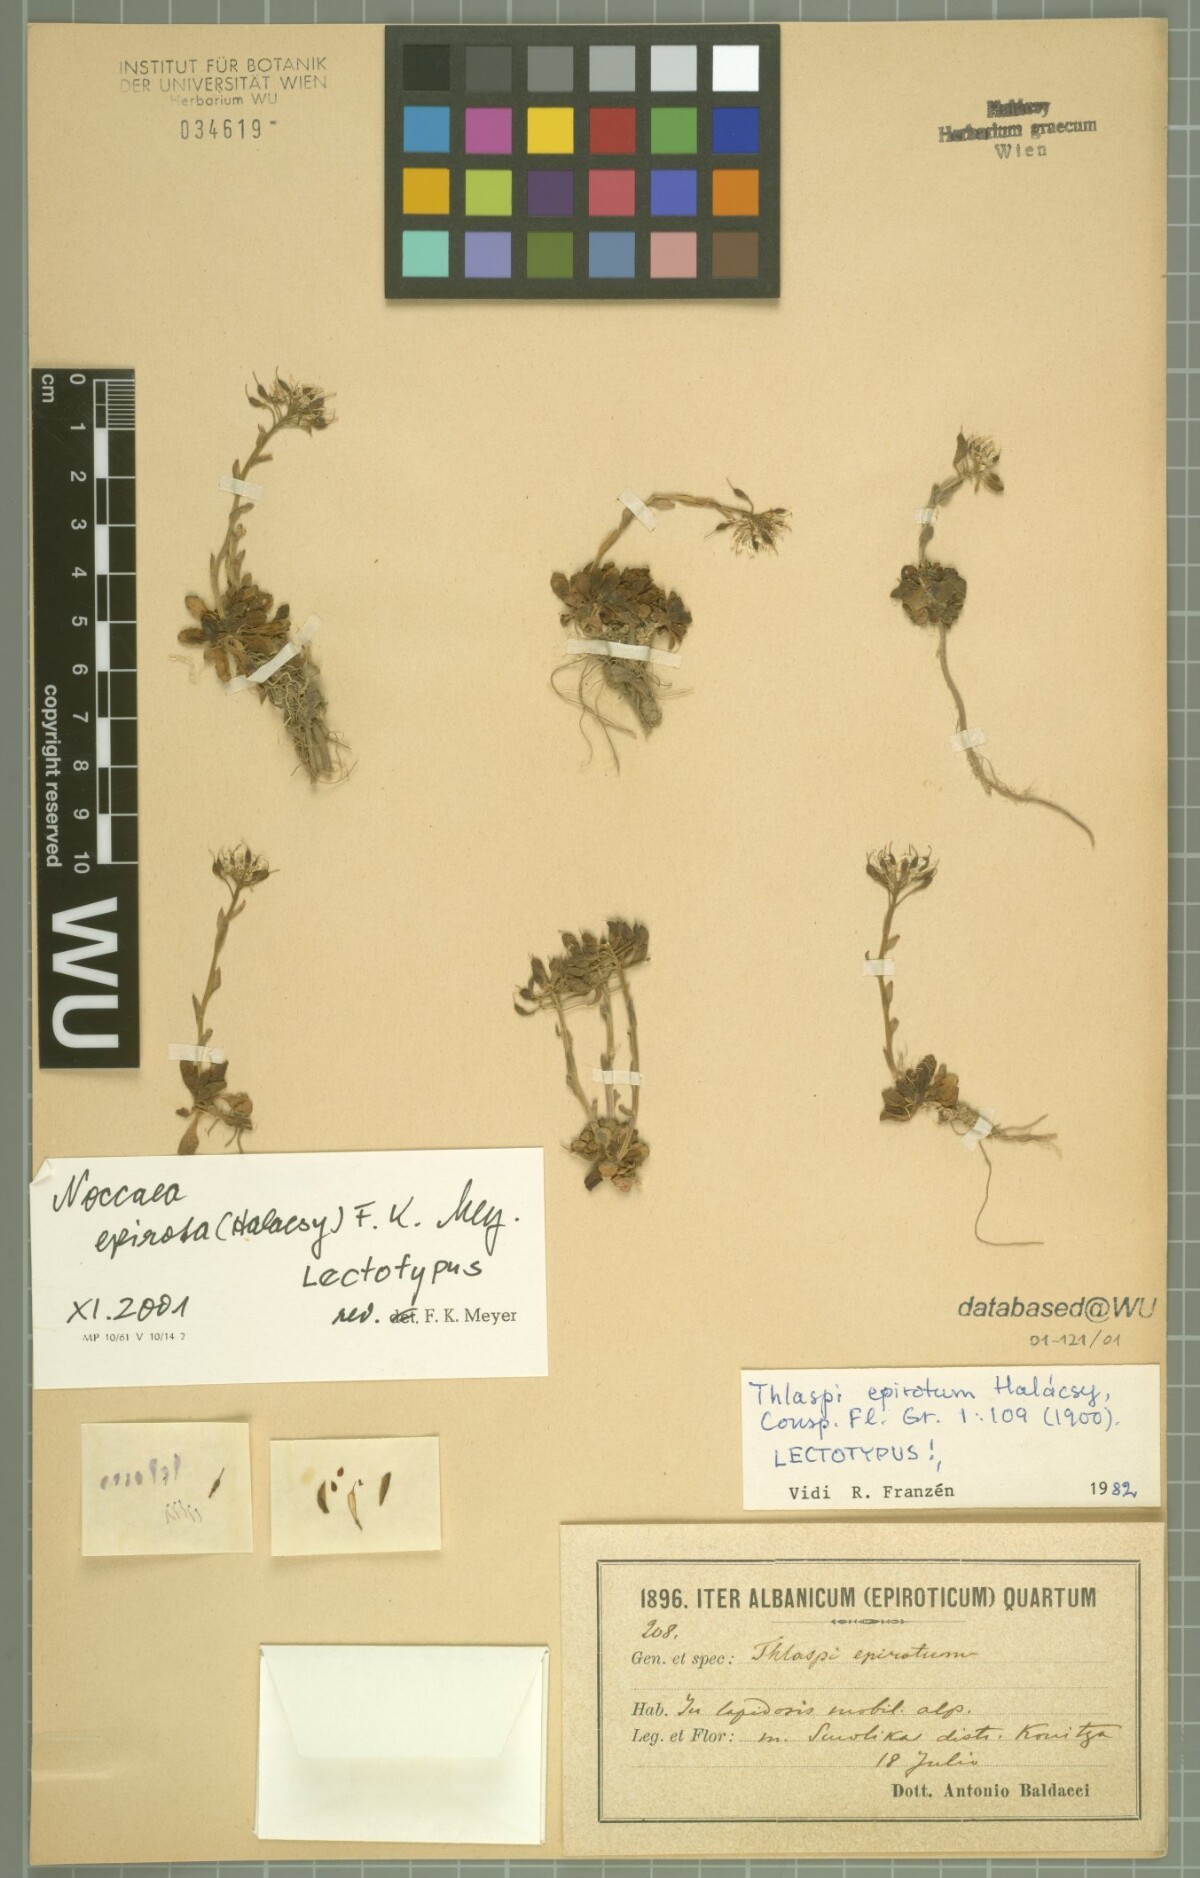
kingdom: Plantae
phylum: Tracheophyta
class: Magnoliopsida
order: Brassicales
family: Brassicaceae
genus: Noccaea
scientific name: Noccaea epirota
